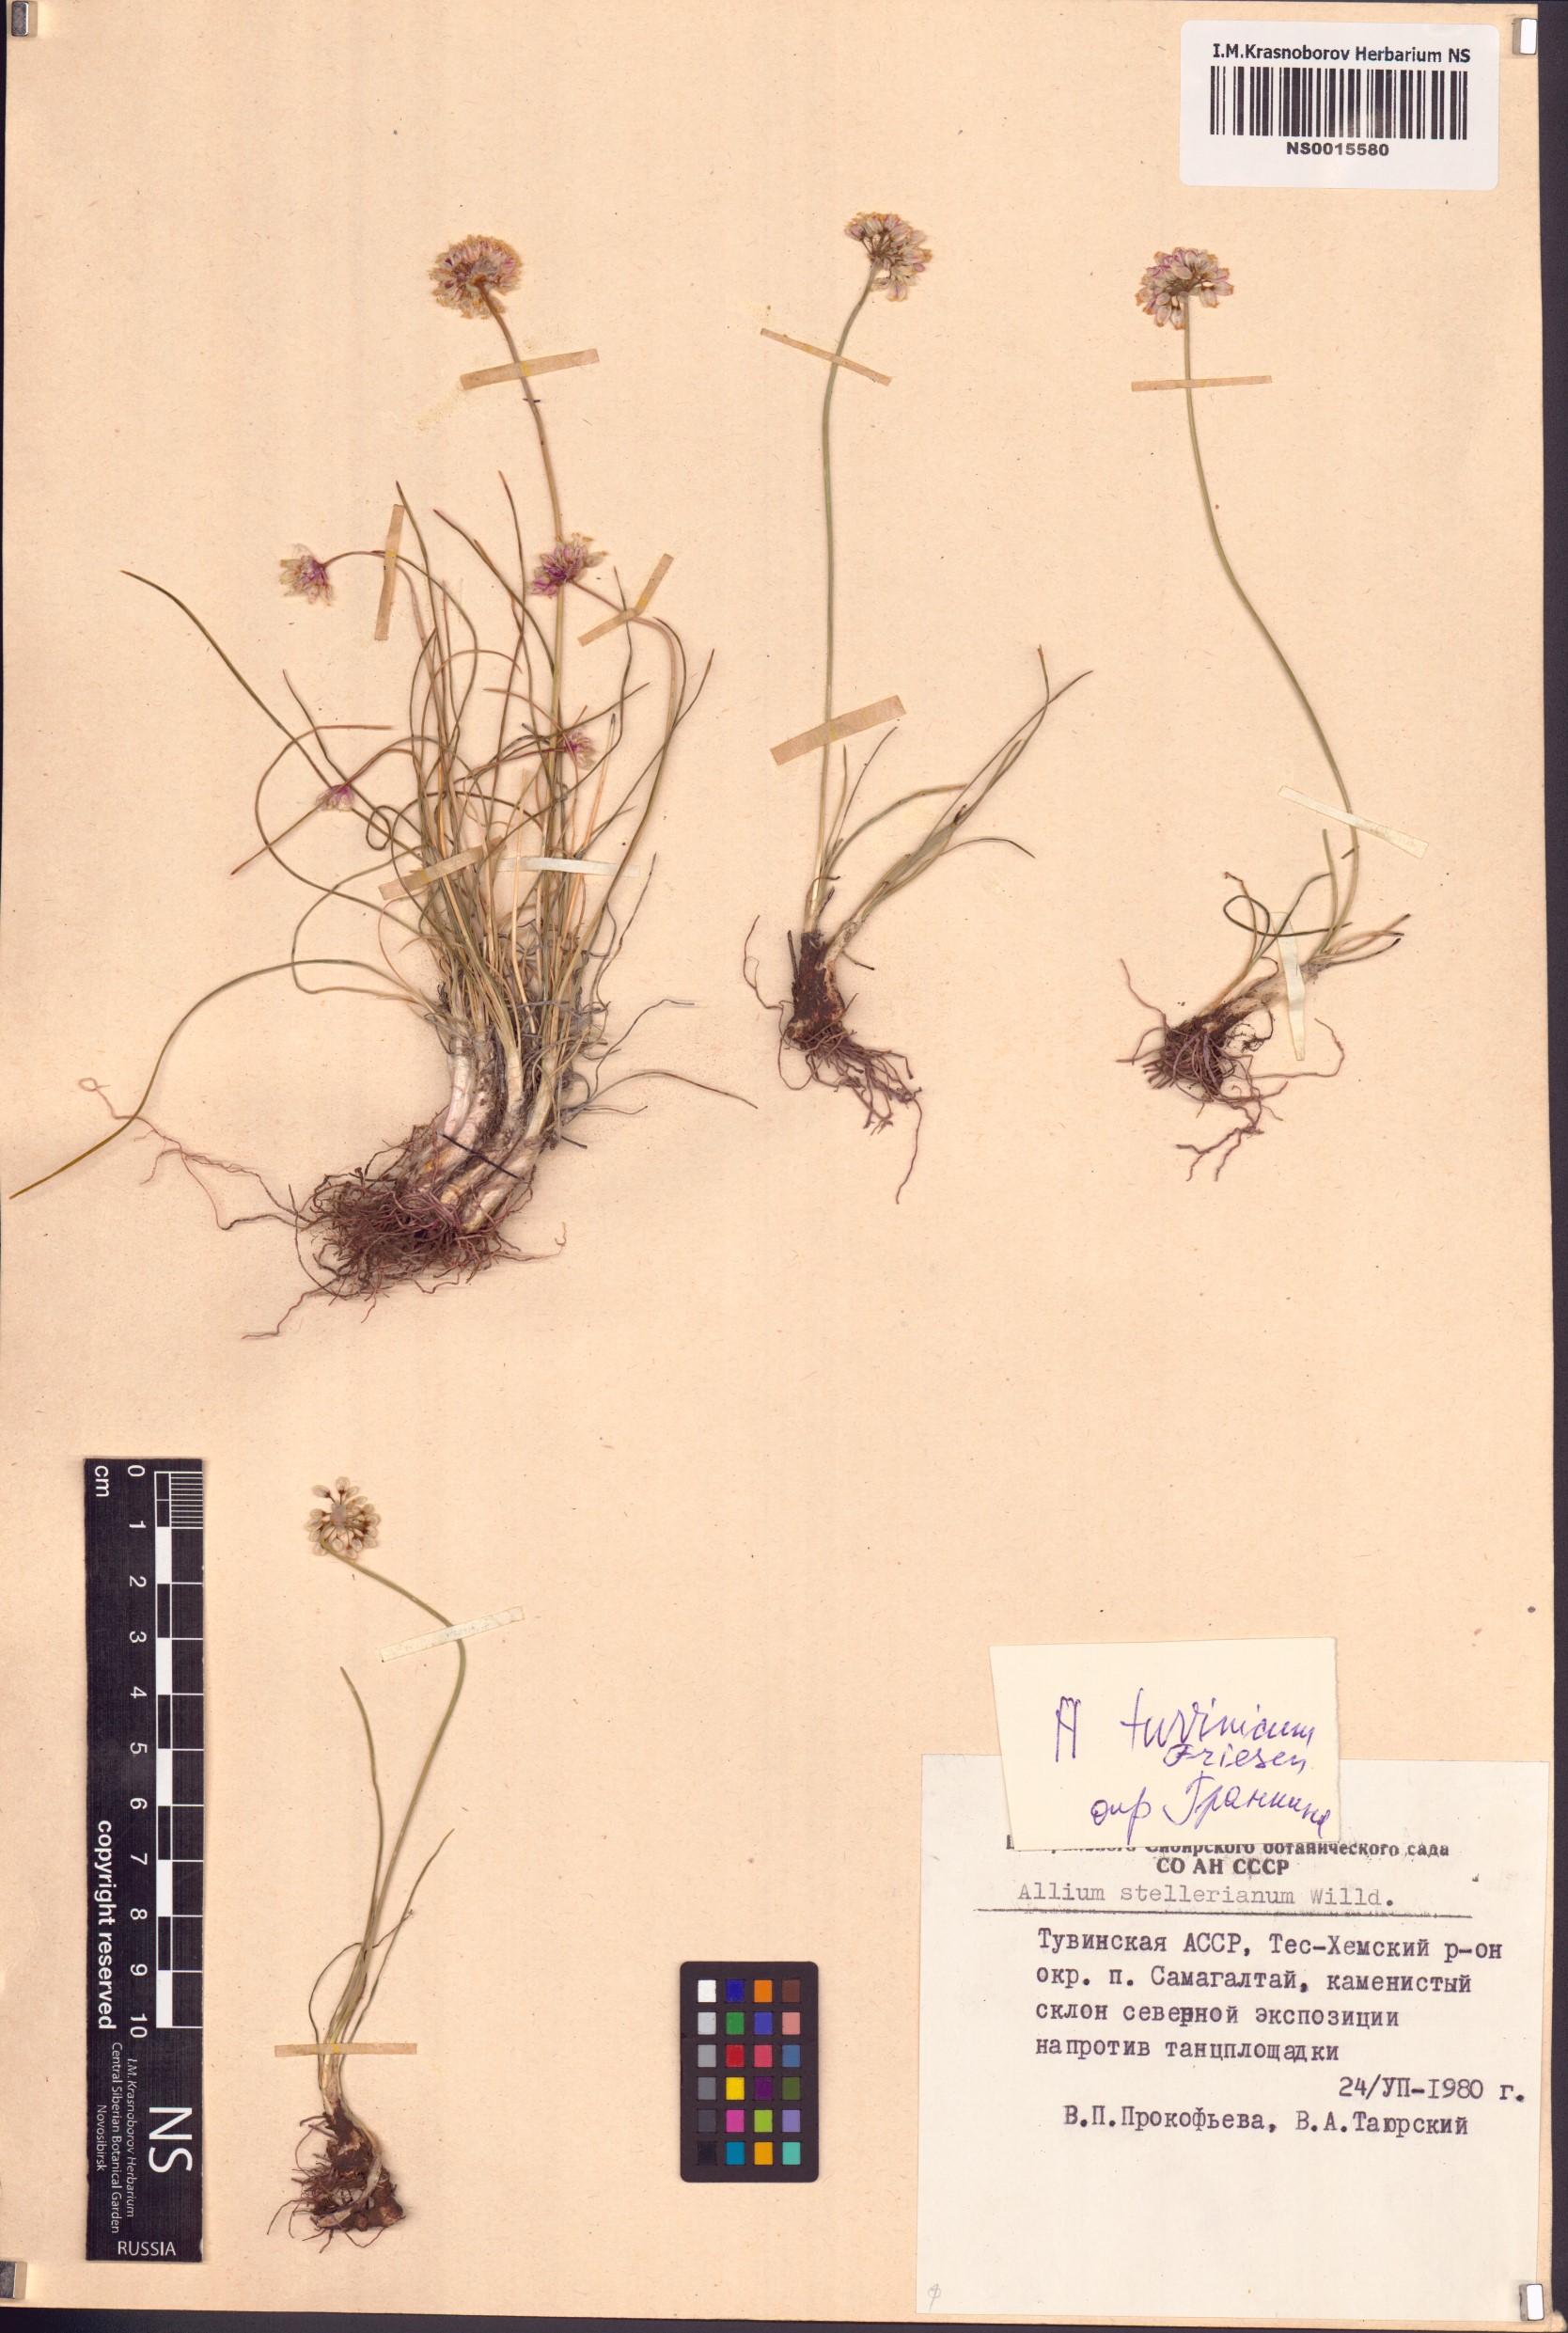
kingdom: Plantae
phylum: Tracheophyta
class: Liliopsida
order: Asparagales
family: Amaryllidaceae
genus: Allium
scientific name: Allium tuvinicum
